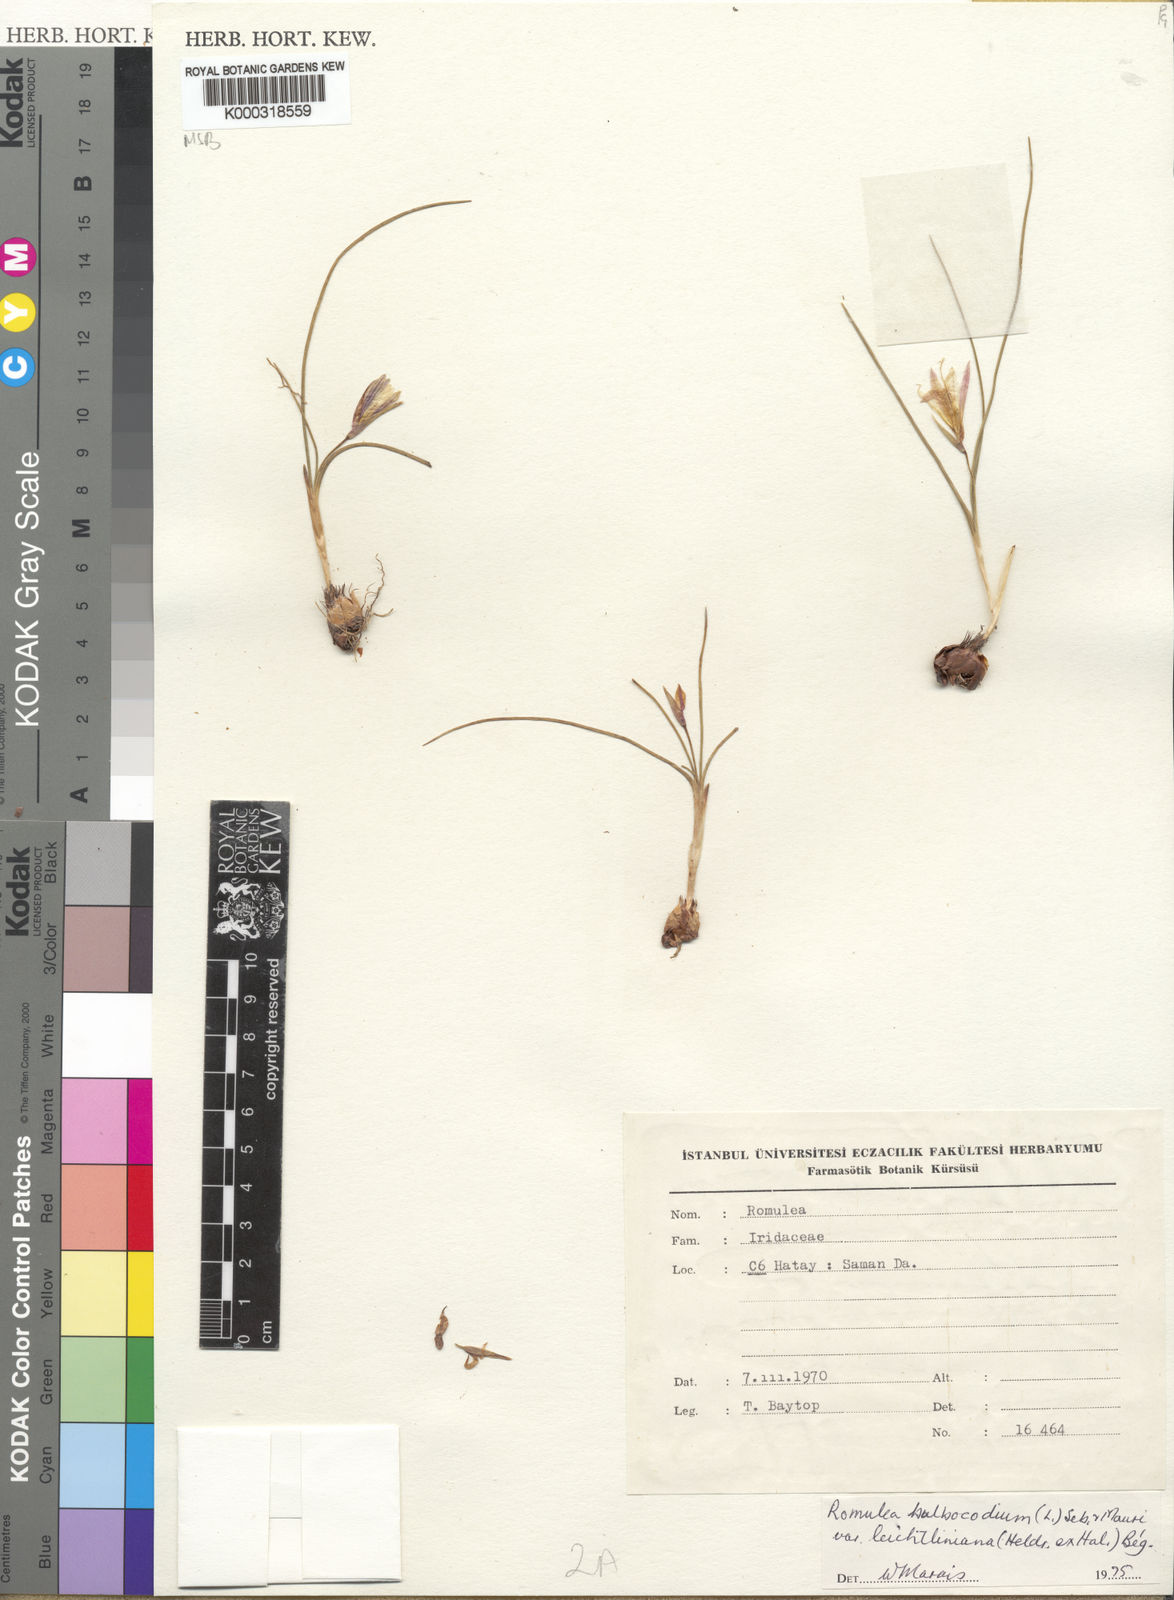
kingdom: Plantae
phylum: Tracheophyta
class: Liliopsida
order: Asparagales
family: Iridaceae
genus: Romulea
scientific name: Romulea bulbocodium
